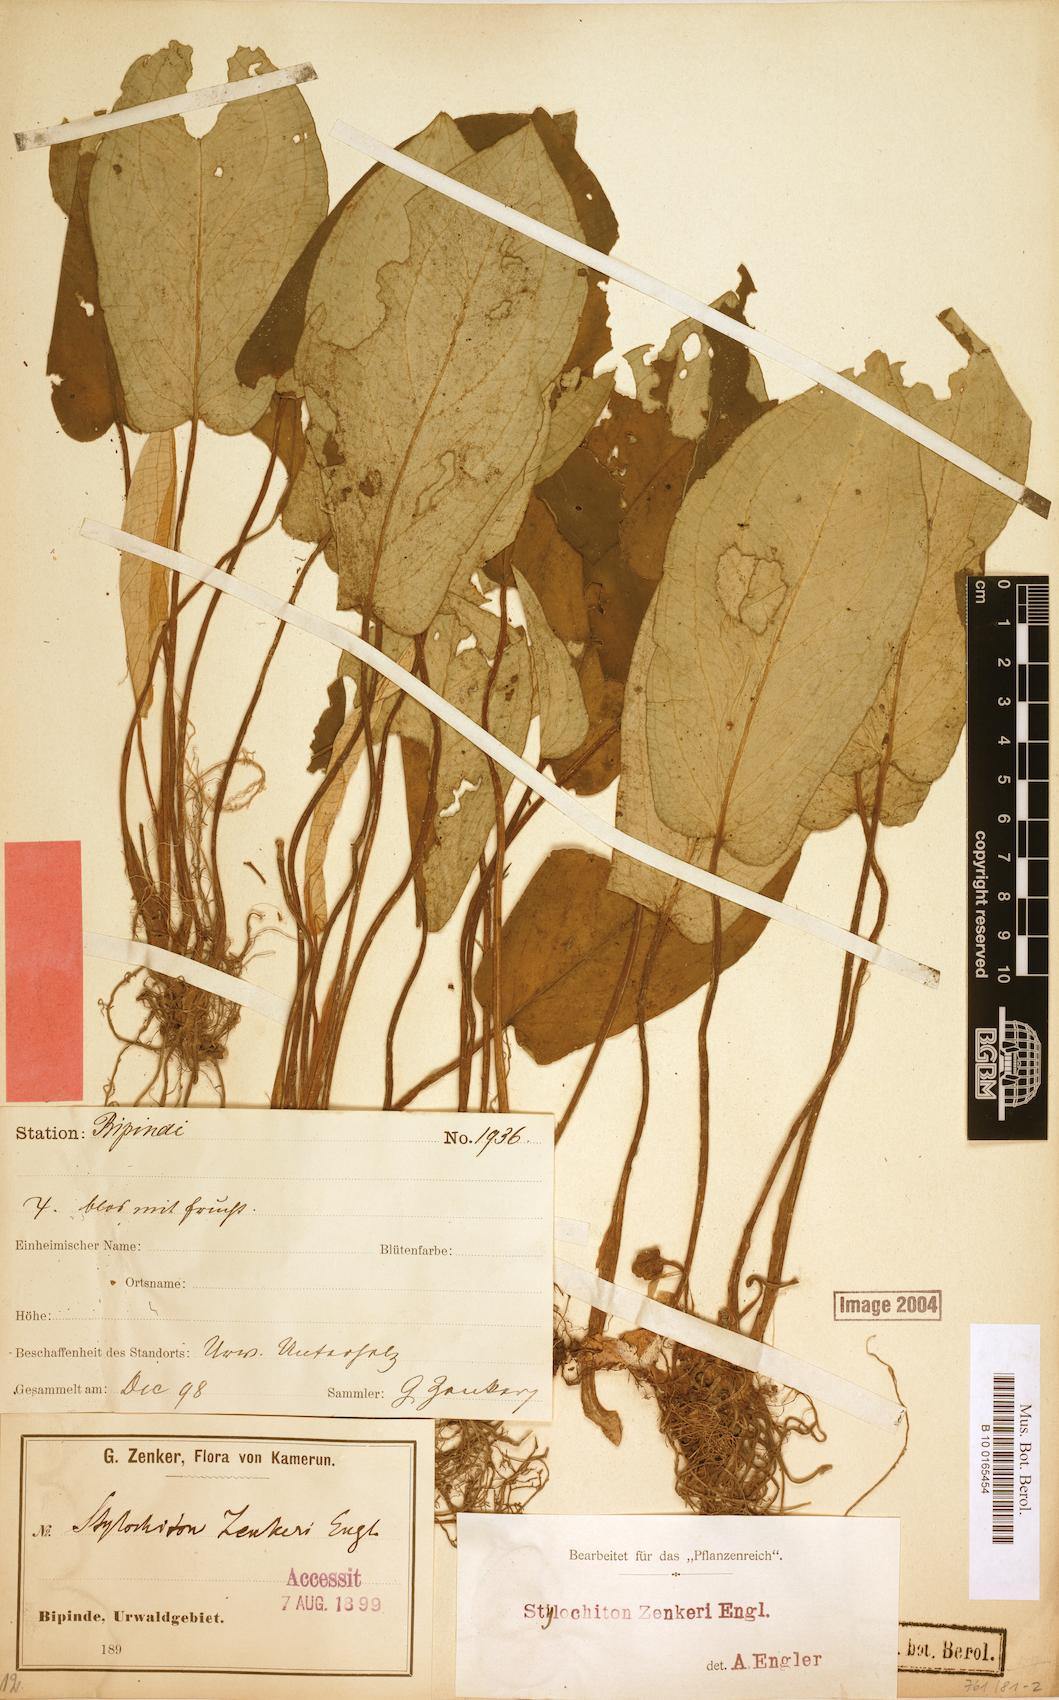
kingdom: Plantae
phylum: Tracheophyta
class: Liliopsida
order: Alismatales
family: Araceae
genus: Stylochaeton
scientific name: Stylochaeton zenkeri
